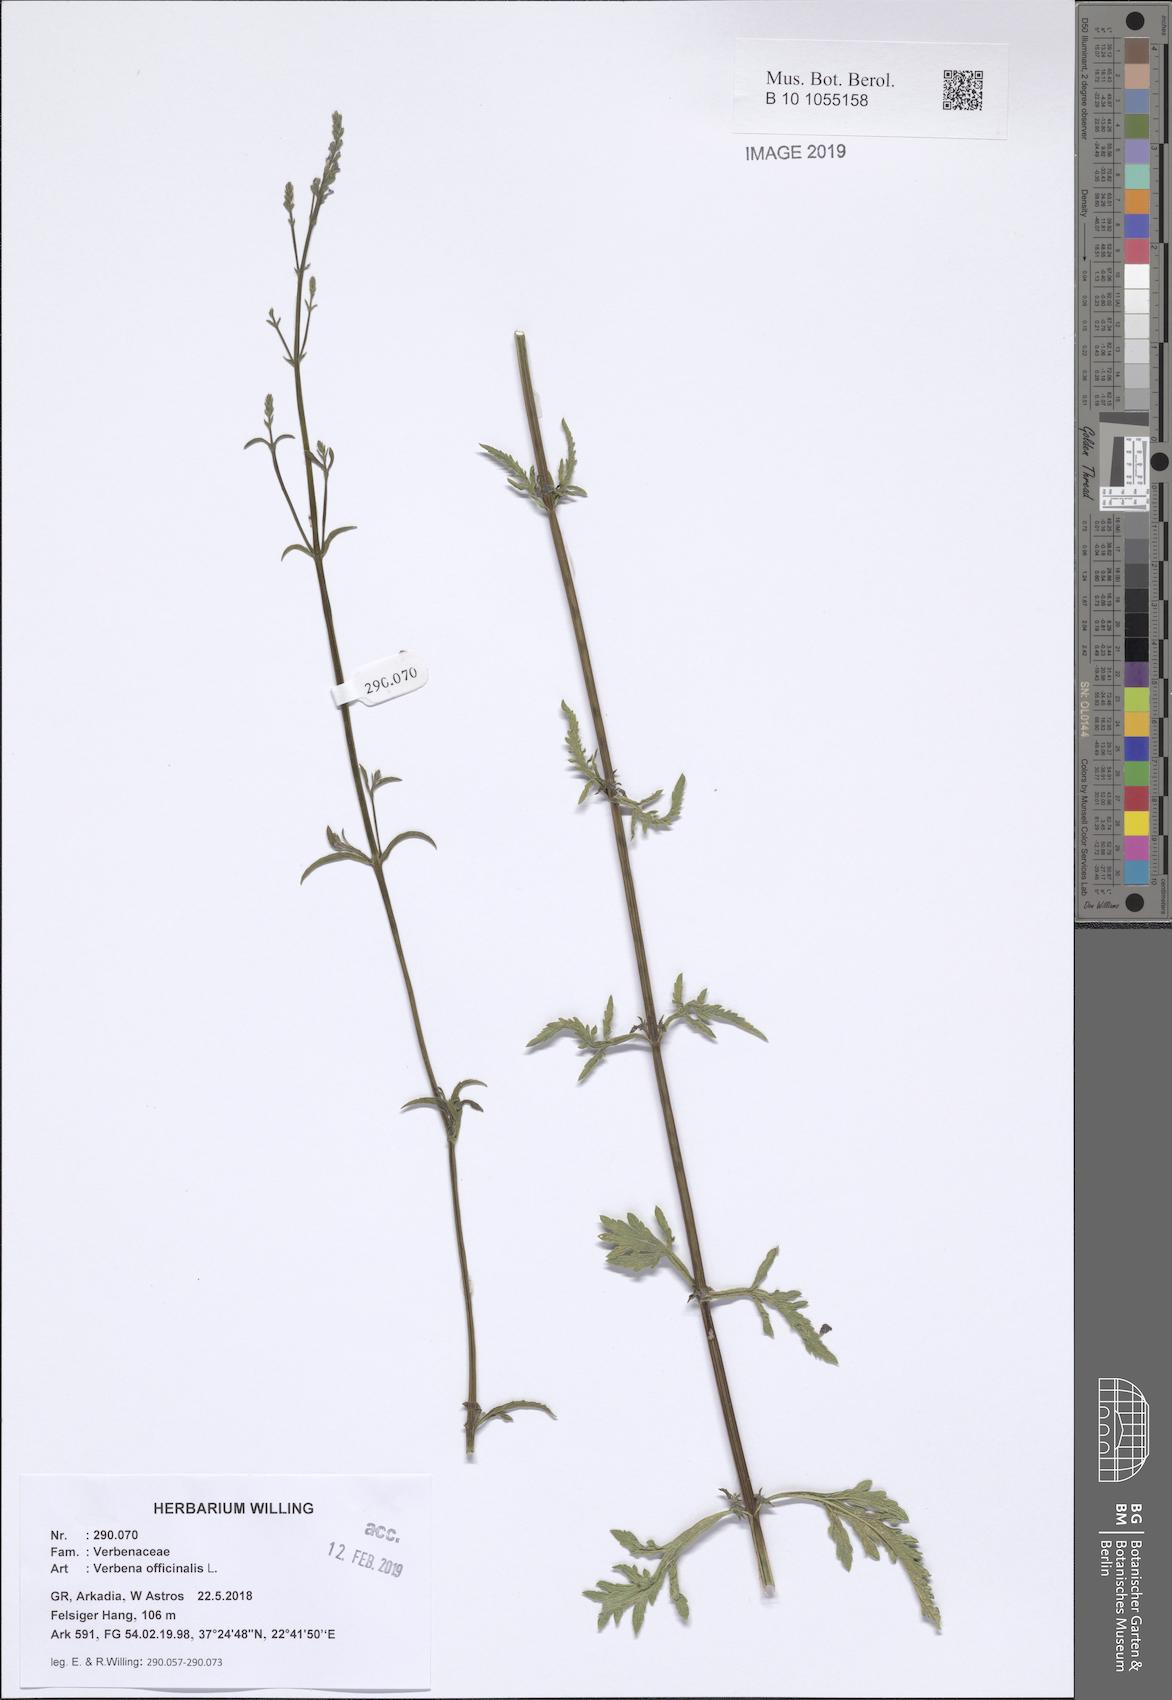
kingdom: Plantae
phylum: Tracheophyta
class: Magnoliopsida
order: Lamiales
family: Verbenaceae
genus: Verbena
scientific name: Verbena officinalis
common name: Vervain
